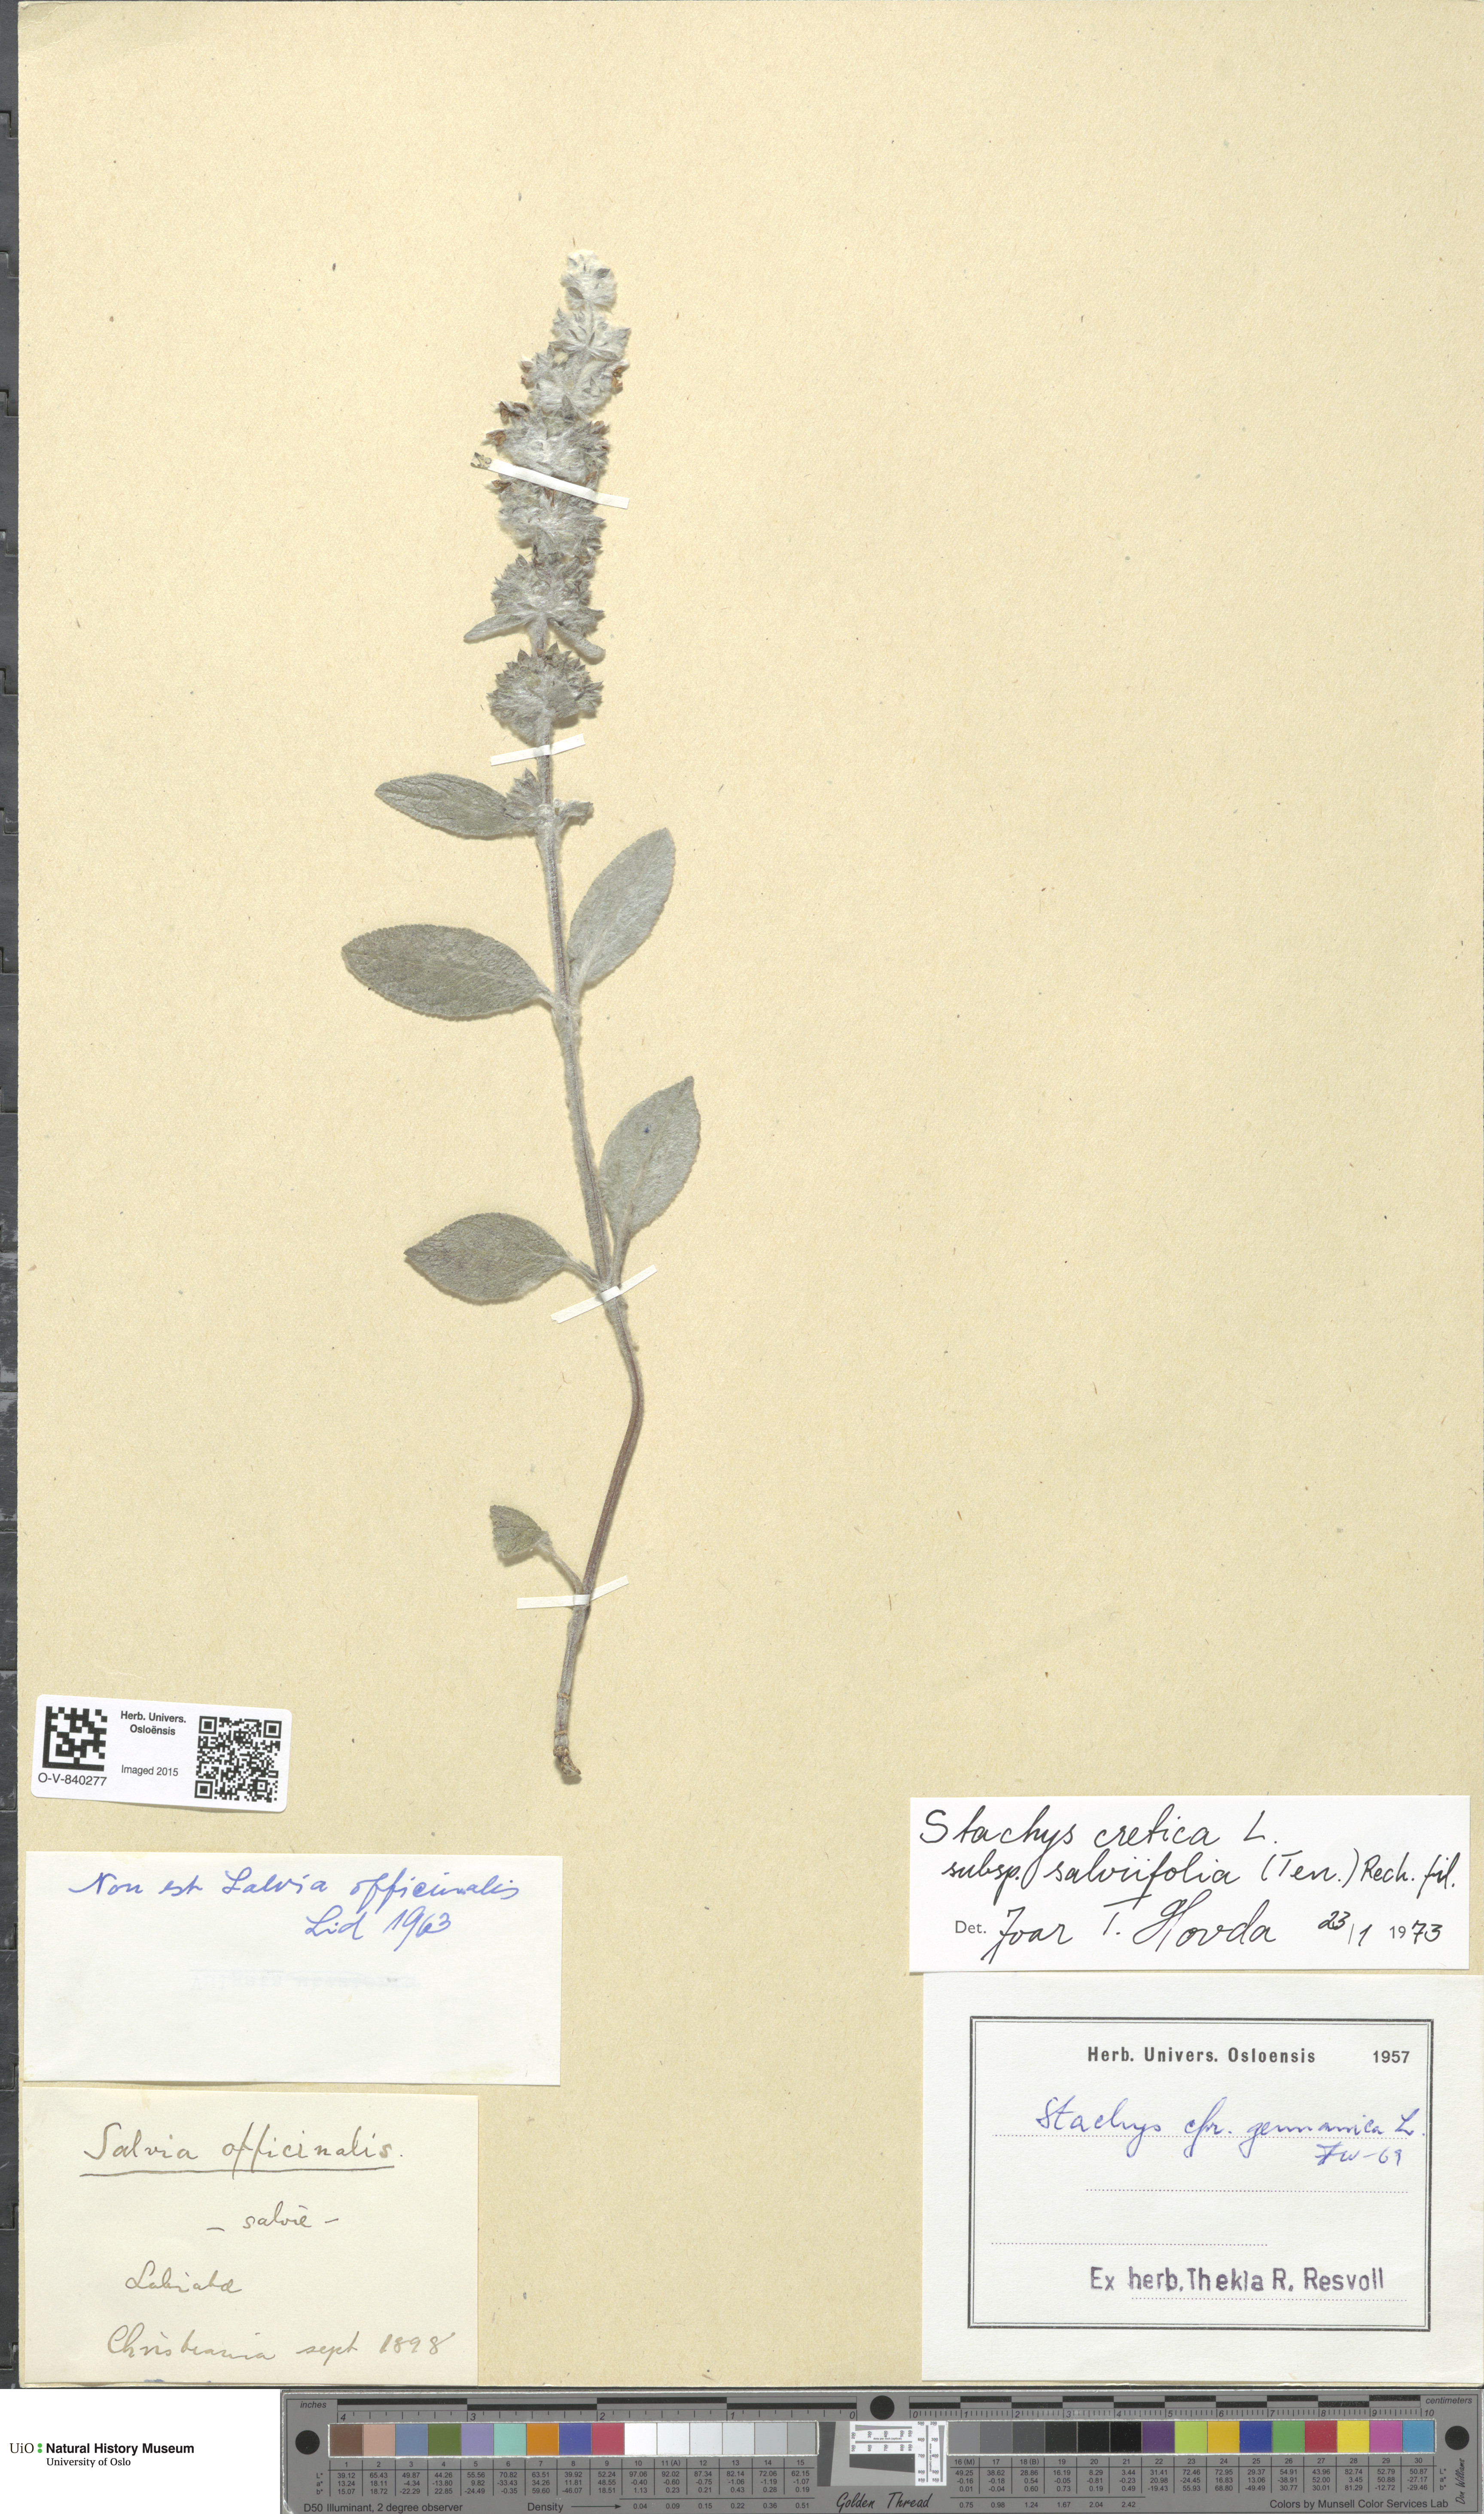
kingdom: Plantae
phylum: Tracheophyta
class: Magnoliopsida
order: Lamiales
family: Lamiaceae
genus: Stachys
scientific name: Stachys cretica
